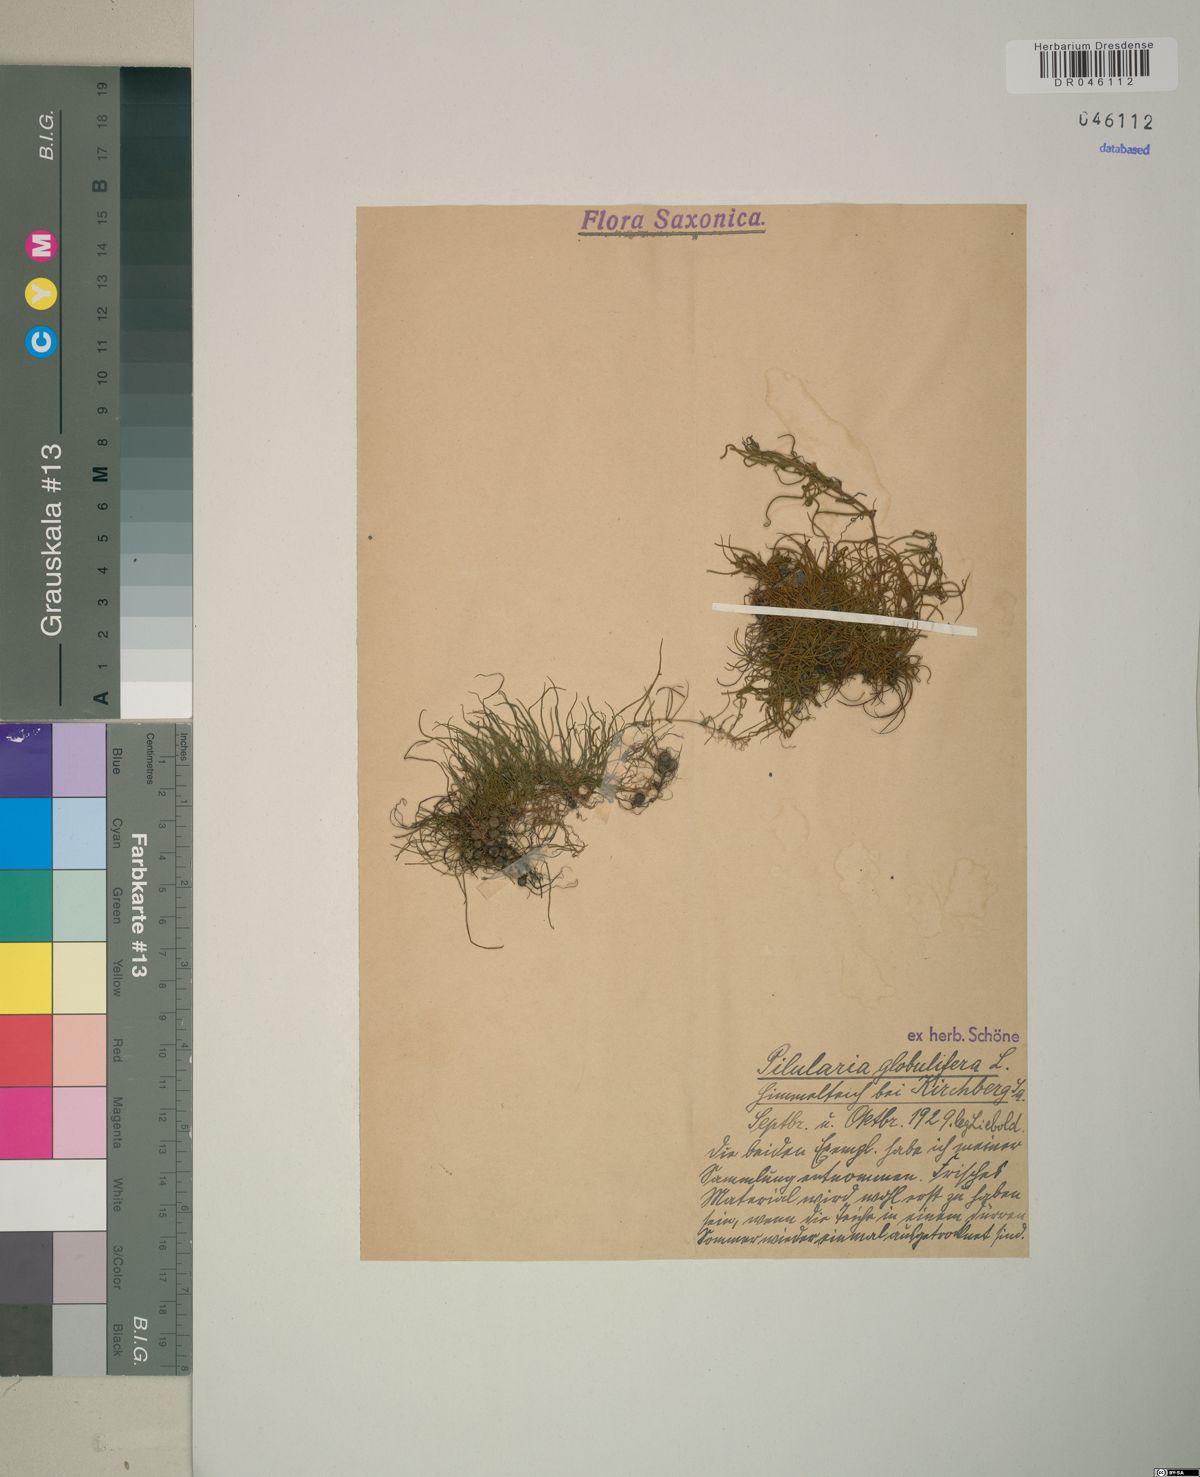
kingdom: Plantae
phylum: Tracheophyta
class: Polypodiopsida
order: Salviniales
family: Marsileaceae
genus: Pilularia
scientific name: Pilularia globulifera
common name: Pillwort
